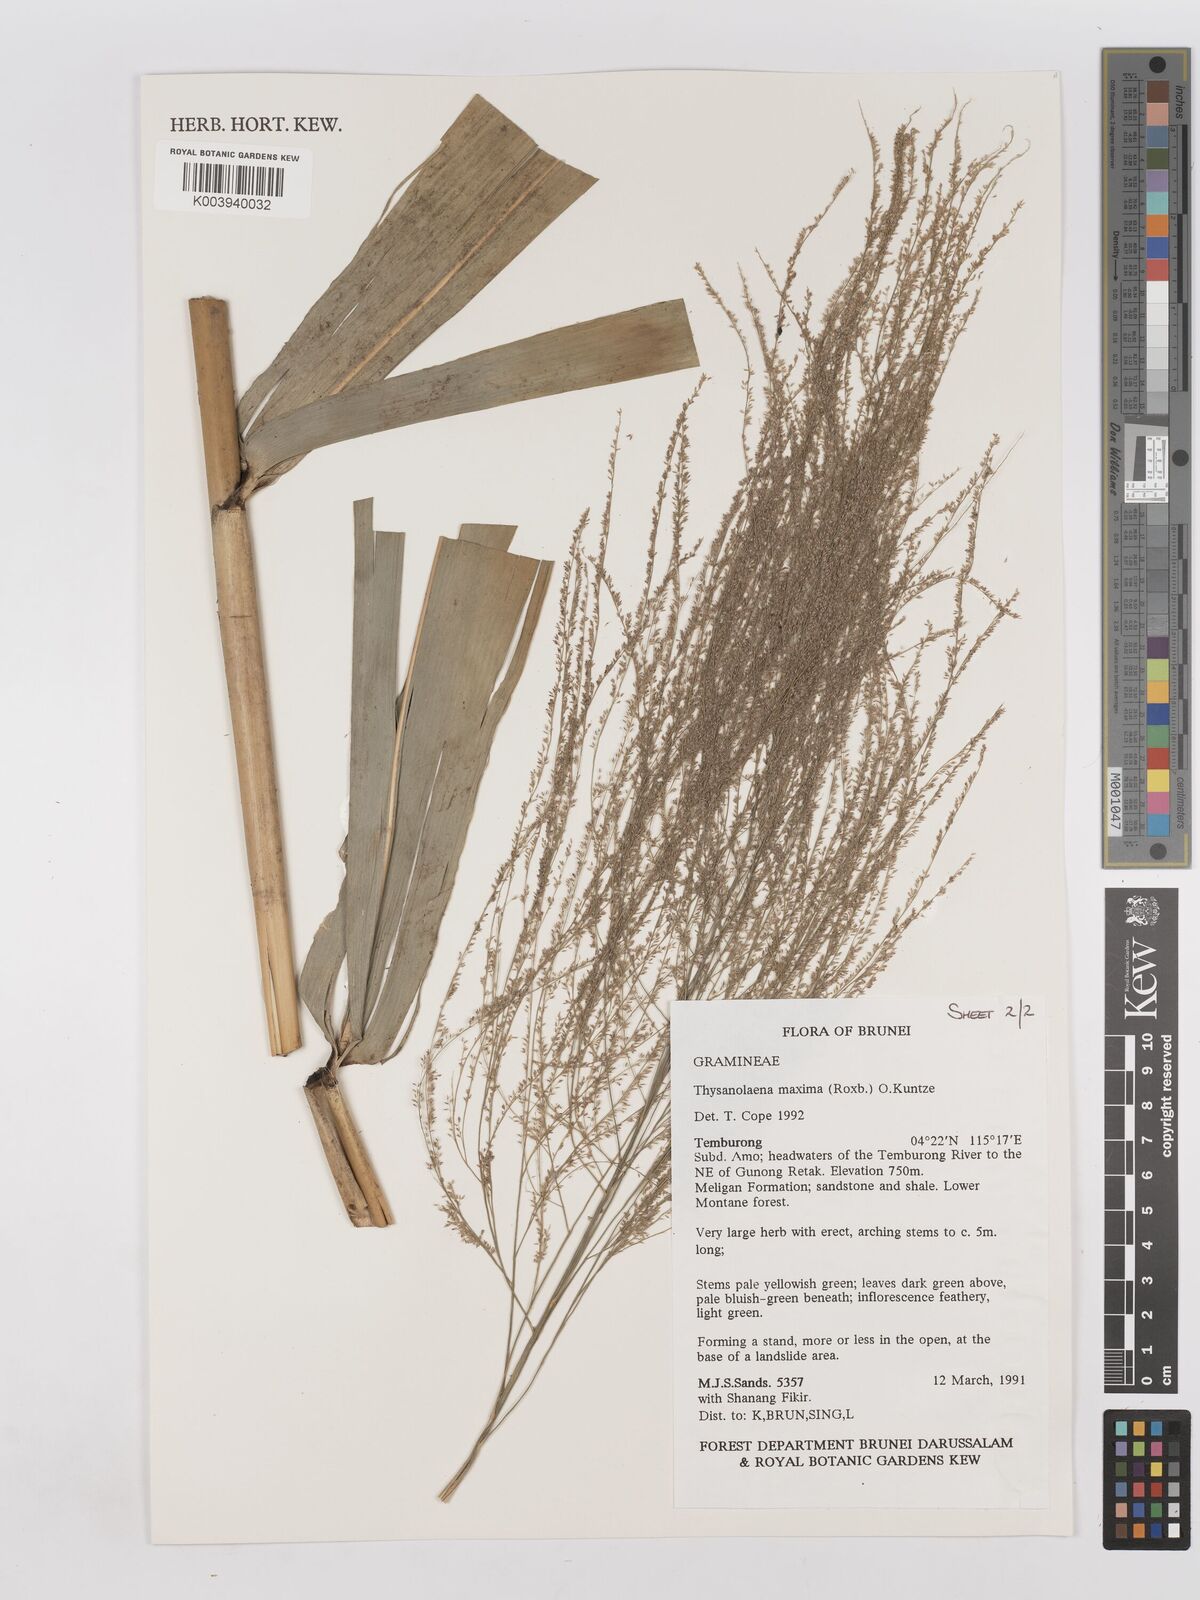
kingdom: Plantae
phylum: Tracheophyta
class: Liliopsida
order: Poales
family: Poaceae
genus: Thysanolaena
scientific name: Thysanolaena latifolia
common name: Tiger grass
